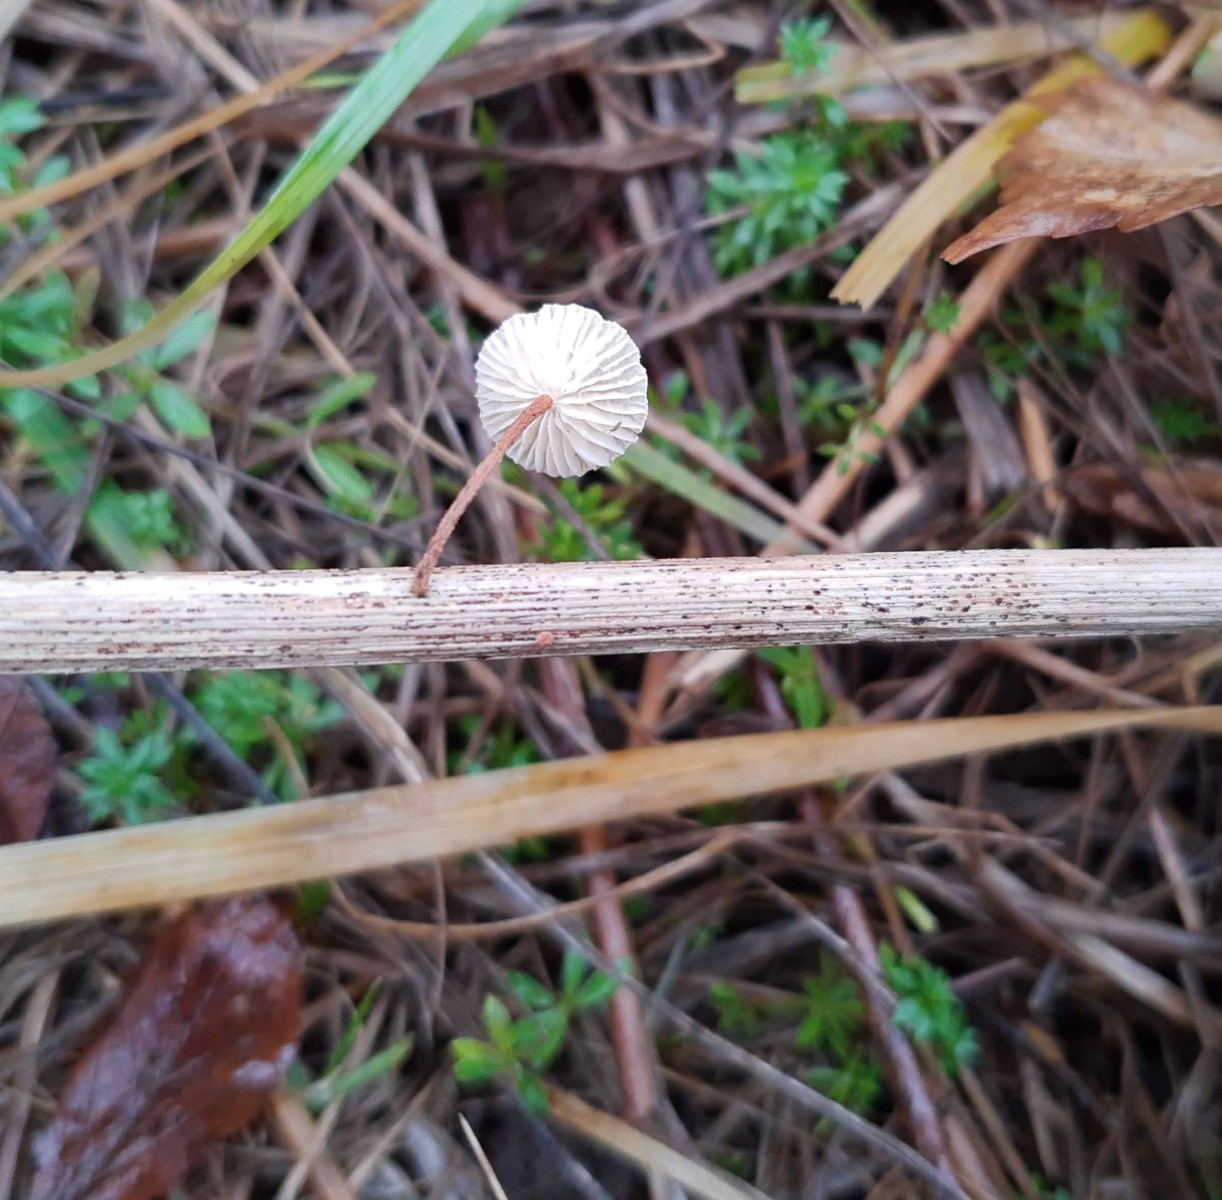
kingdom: Fungi
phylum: Basidiomycota
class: Agaricomycetes
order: Agaricales
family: Marasmiaceae
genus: Crinipellis
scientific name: Crinipellis scabella
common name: børstefod
